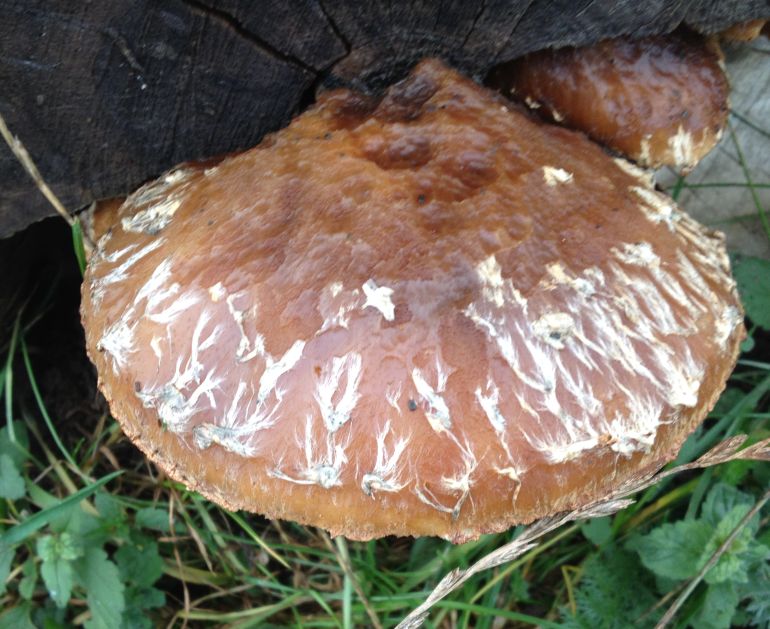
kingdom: Fungi
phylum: Basidiomycota
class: Agaricomycetes
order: Agaricales
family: Strophariaceae
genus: Pholiota
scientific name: Pholiota populnea
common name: poppel-kæmpeskælhat
